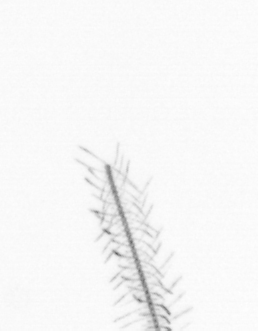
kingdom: Chromista
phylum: Ochrophyta
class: Bacillariophyceae
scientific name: Bacillariophyceae
